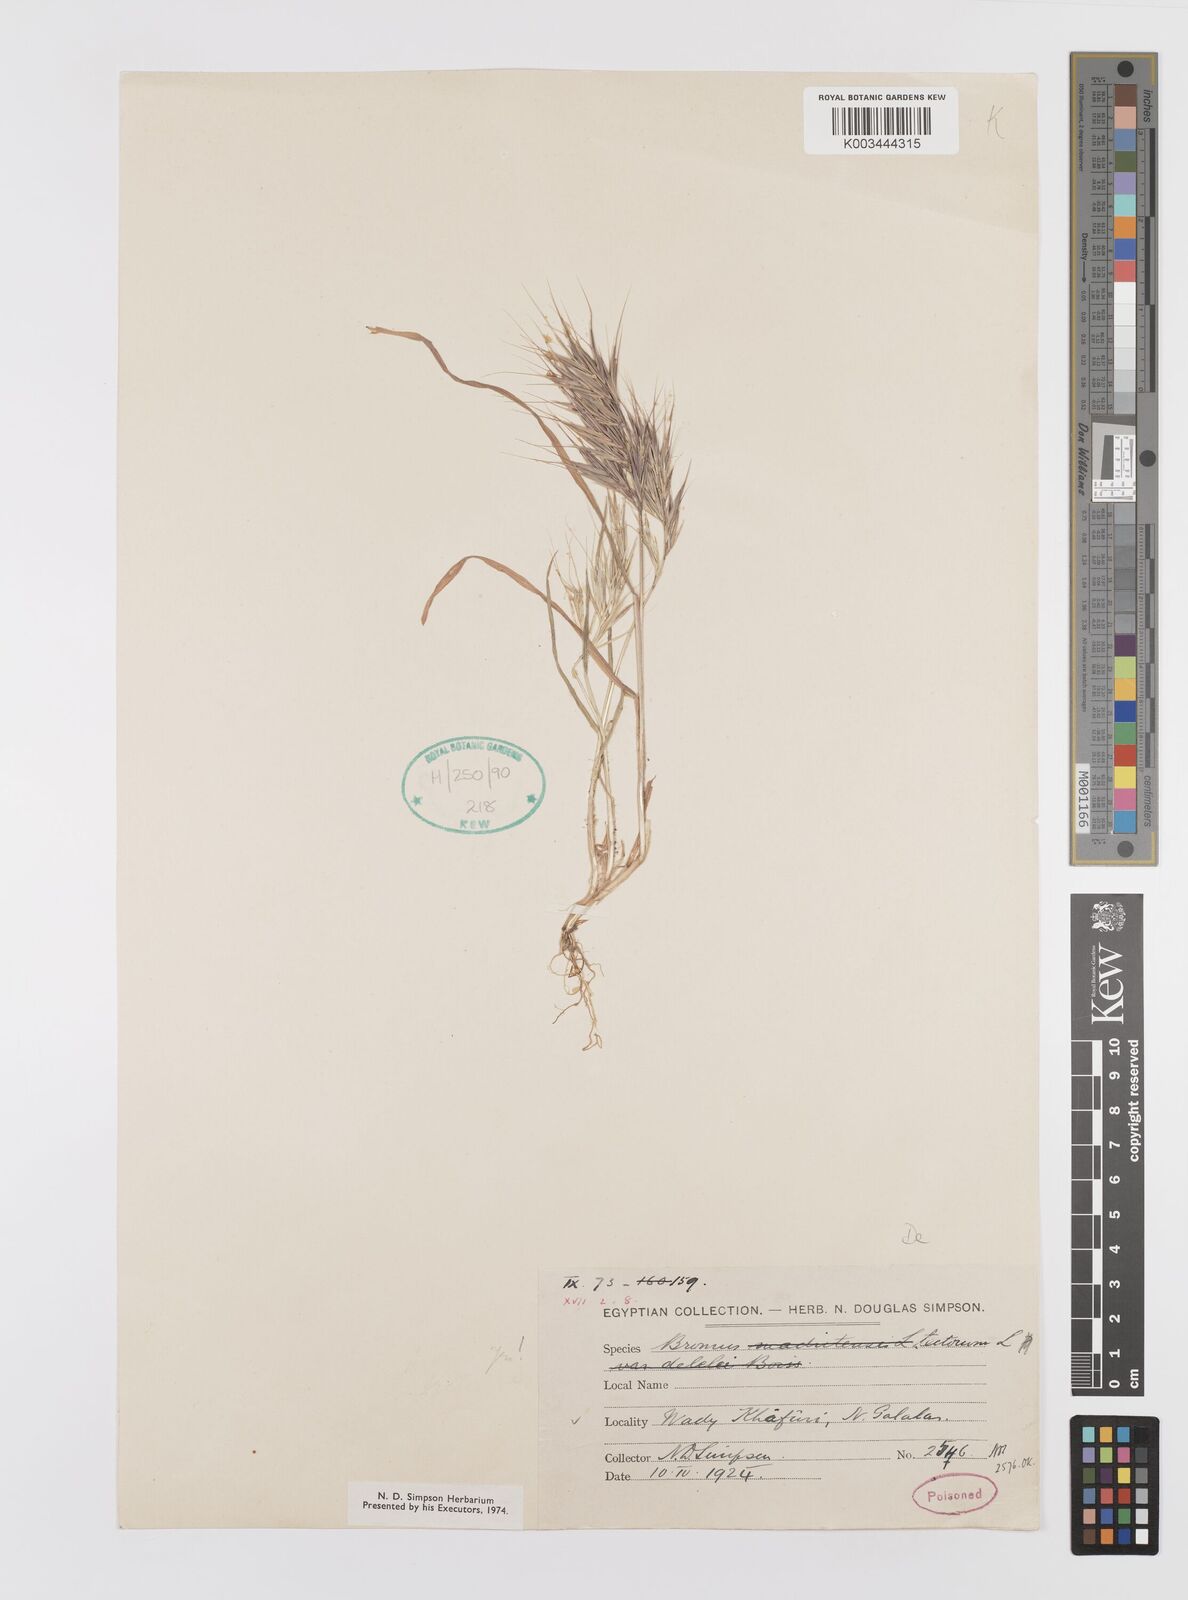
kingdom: Plantae
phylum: Tracheophyta
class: Liliopsida
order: Poales
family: Poaceae
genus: Bromus
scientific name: Bromus madritensis
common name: Compact brome
